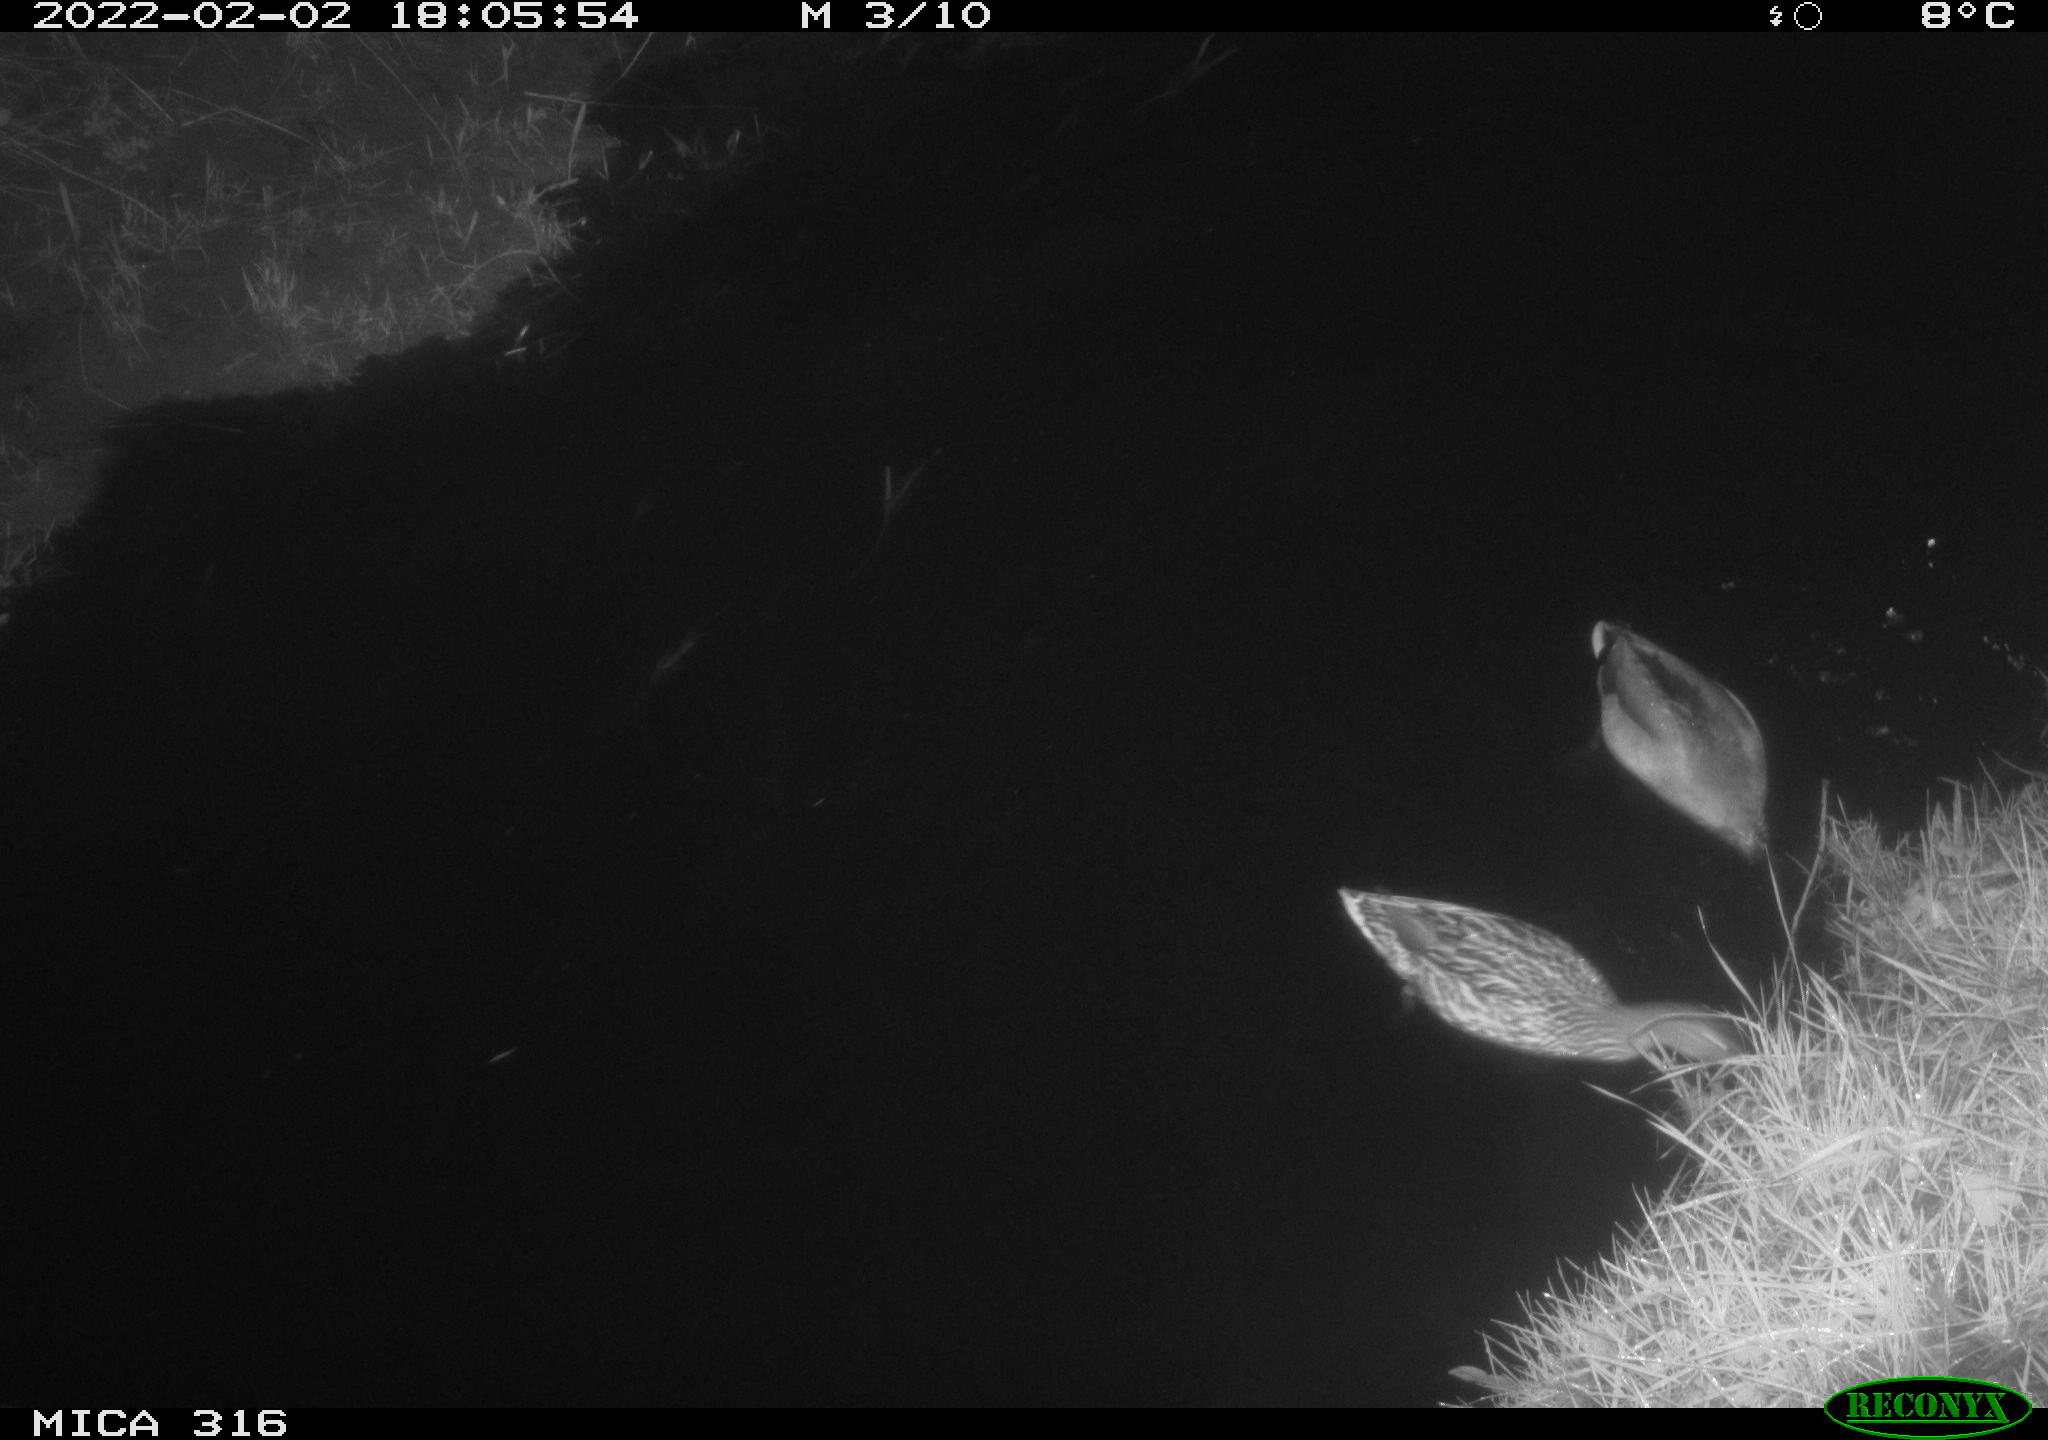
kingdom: Animalia
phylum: Chordata
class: Aves
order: Anseriformes
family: Anatidae
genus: Anas
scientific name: Anas platyrhynchos
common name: Mallard
